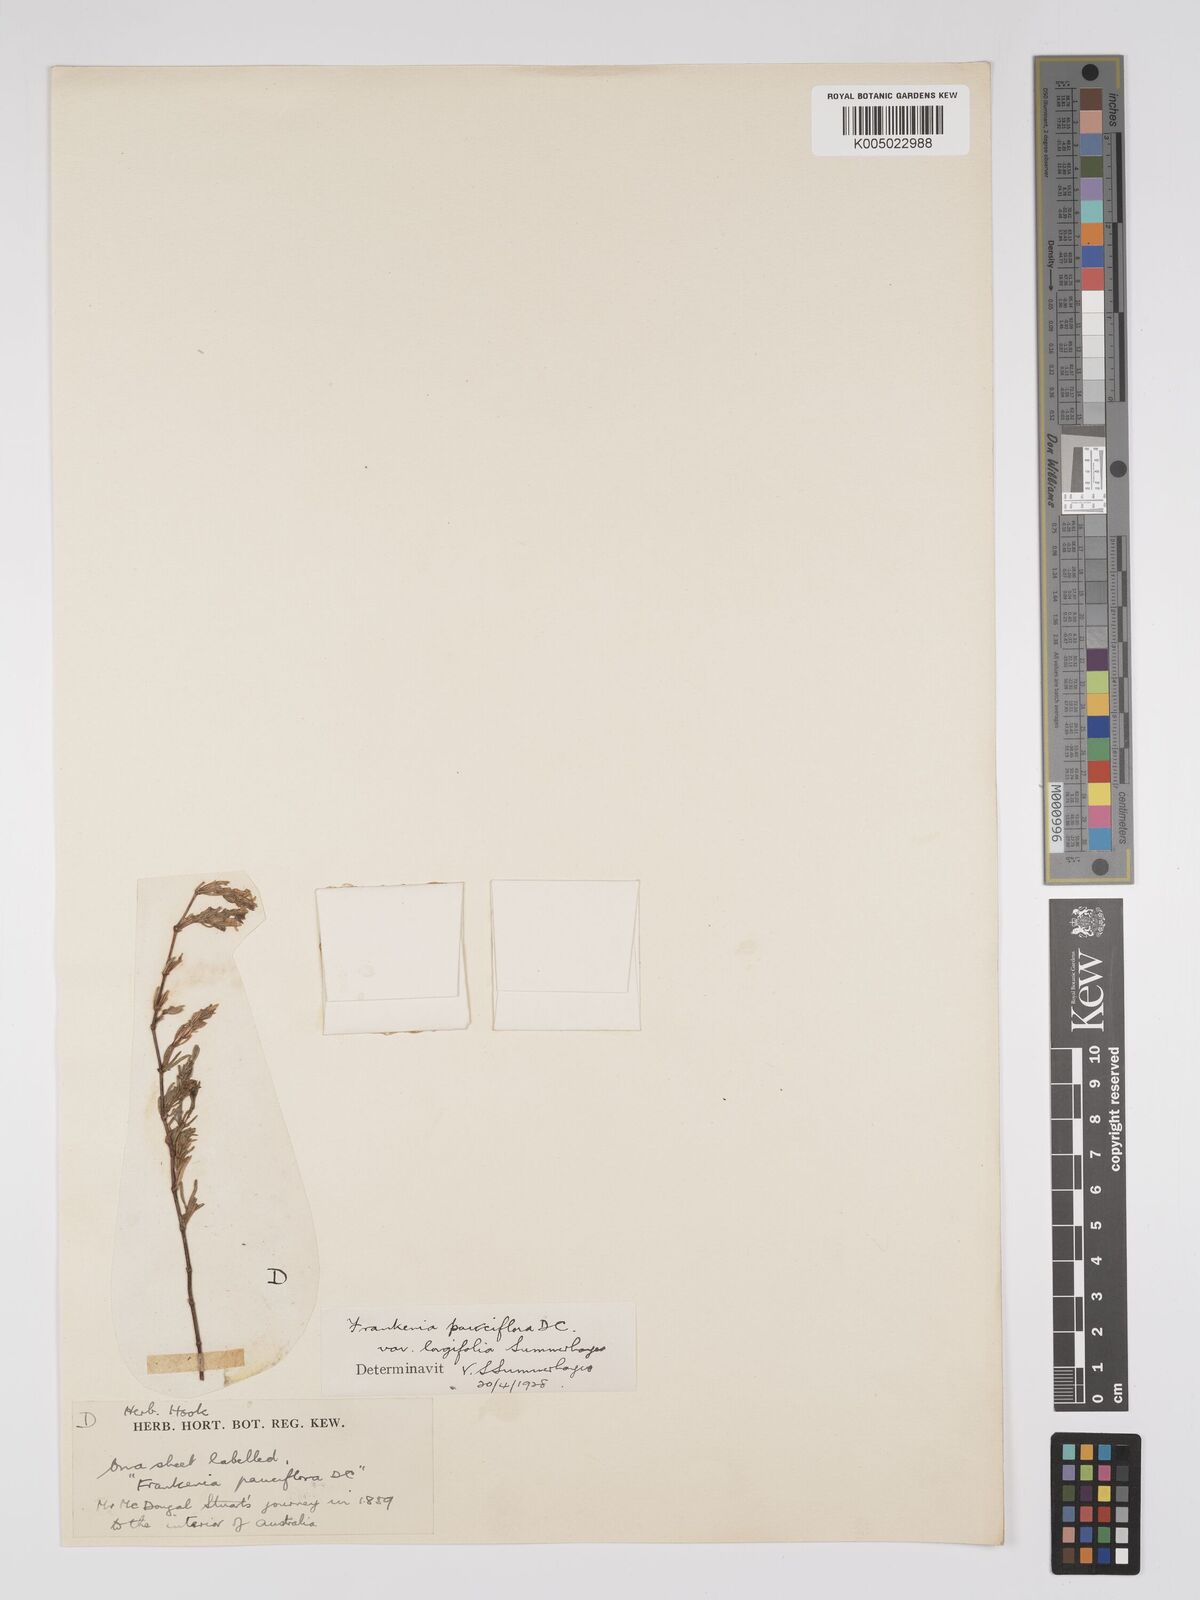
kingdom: Plantae
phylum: Tracheophyta
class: Magnoliopsida
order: Caryophyllales
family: Frankeniaceae
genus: Frankenia
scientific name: Frankenia pauciflora
